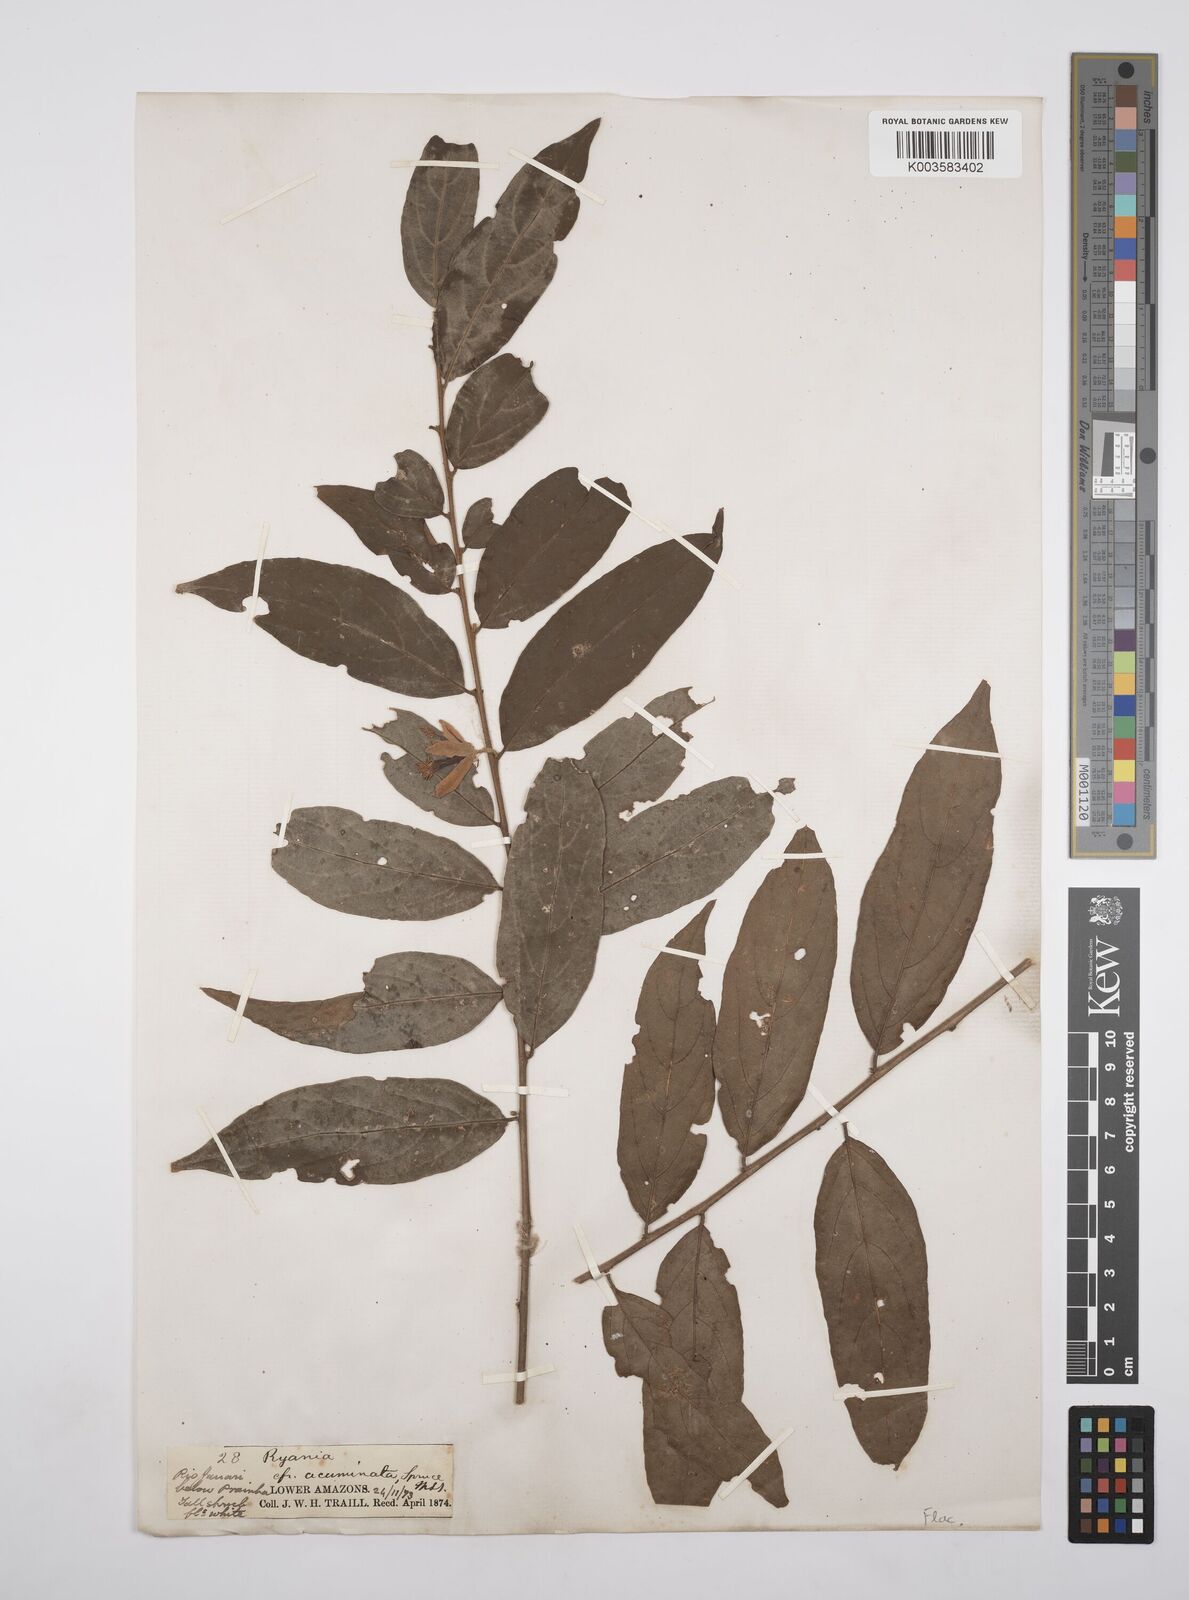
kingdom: Plantae
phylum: Tracheophyta
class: Magnoliopsida
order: Malpighiales
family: Salicaceae
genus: Ryania
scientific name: Ryania
